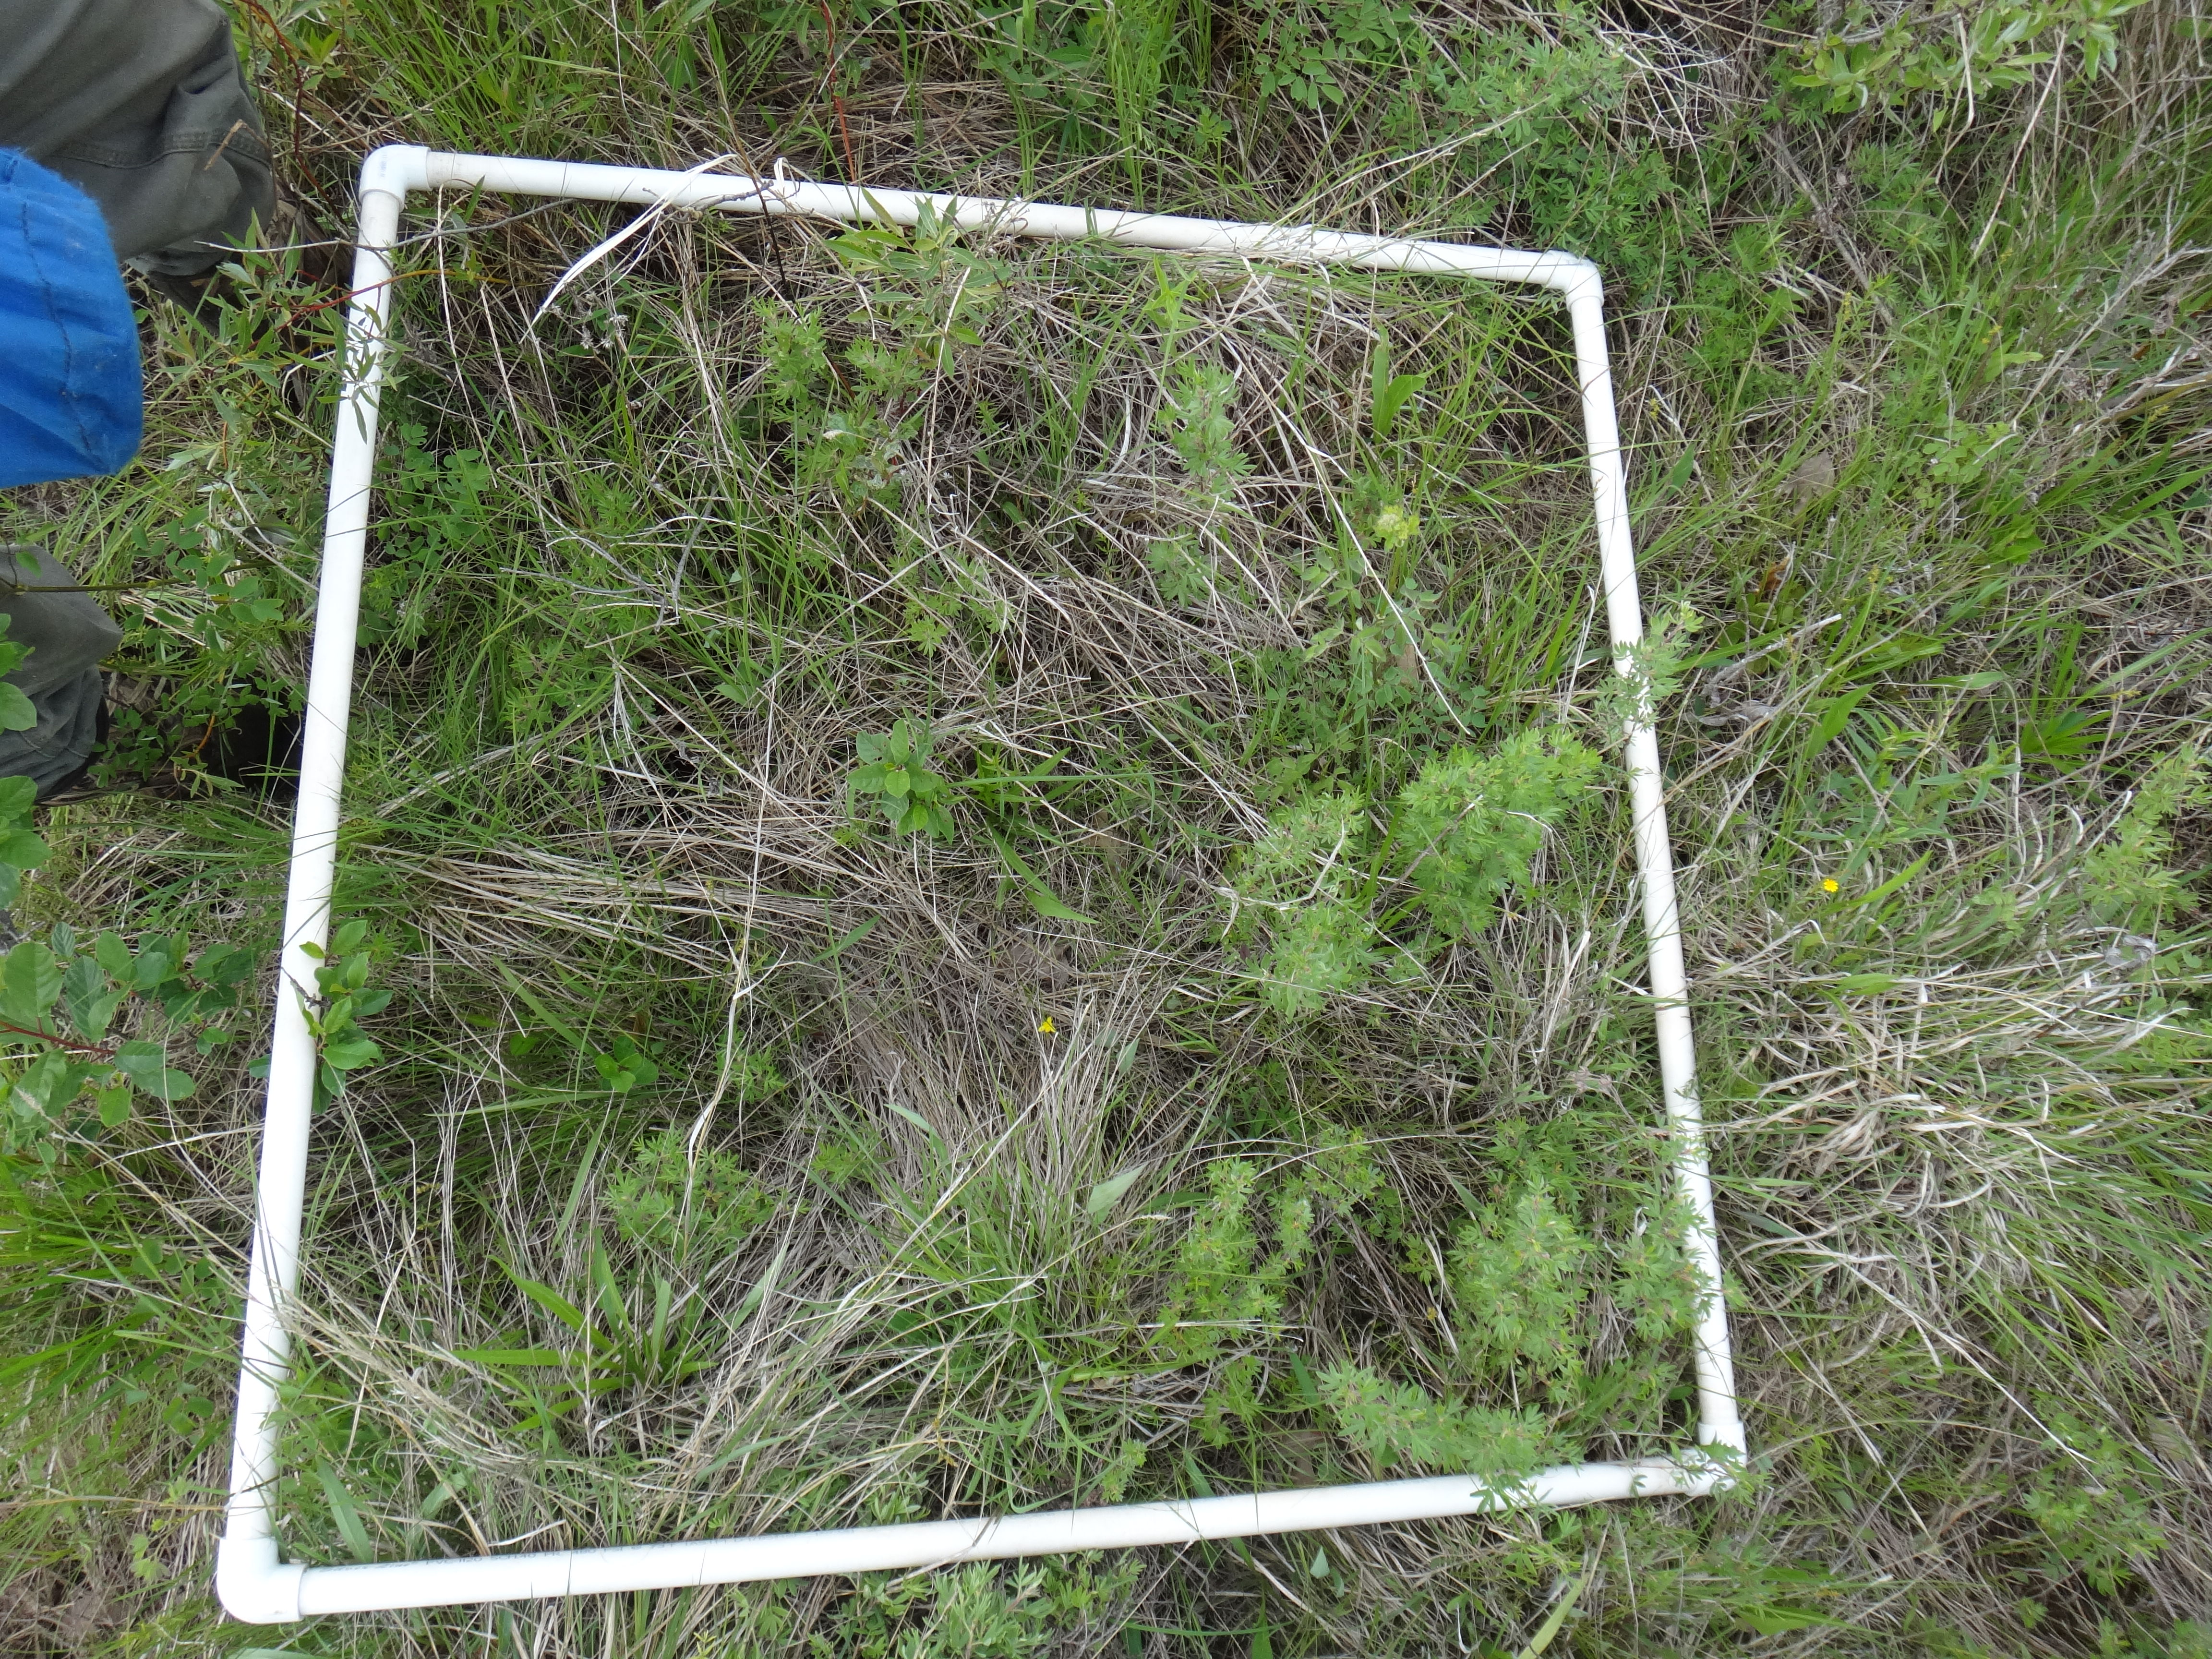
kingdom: Plantae
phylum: Tracheophyta
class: Magnoliopsida
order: Asterales
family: Asteraceae
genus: Silphium
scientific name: Silphium terebinthinaceum
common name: Basal-leaf rosinweed
